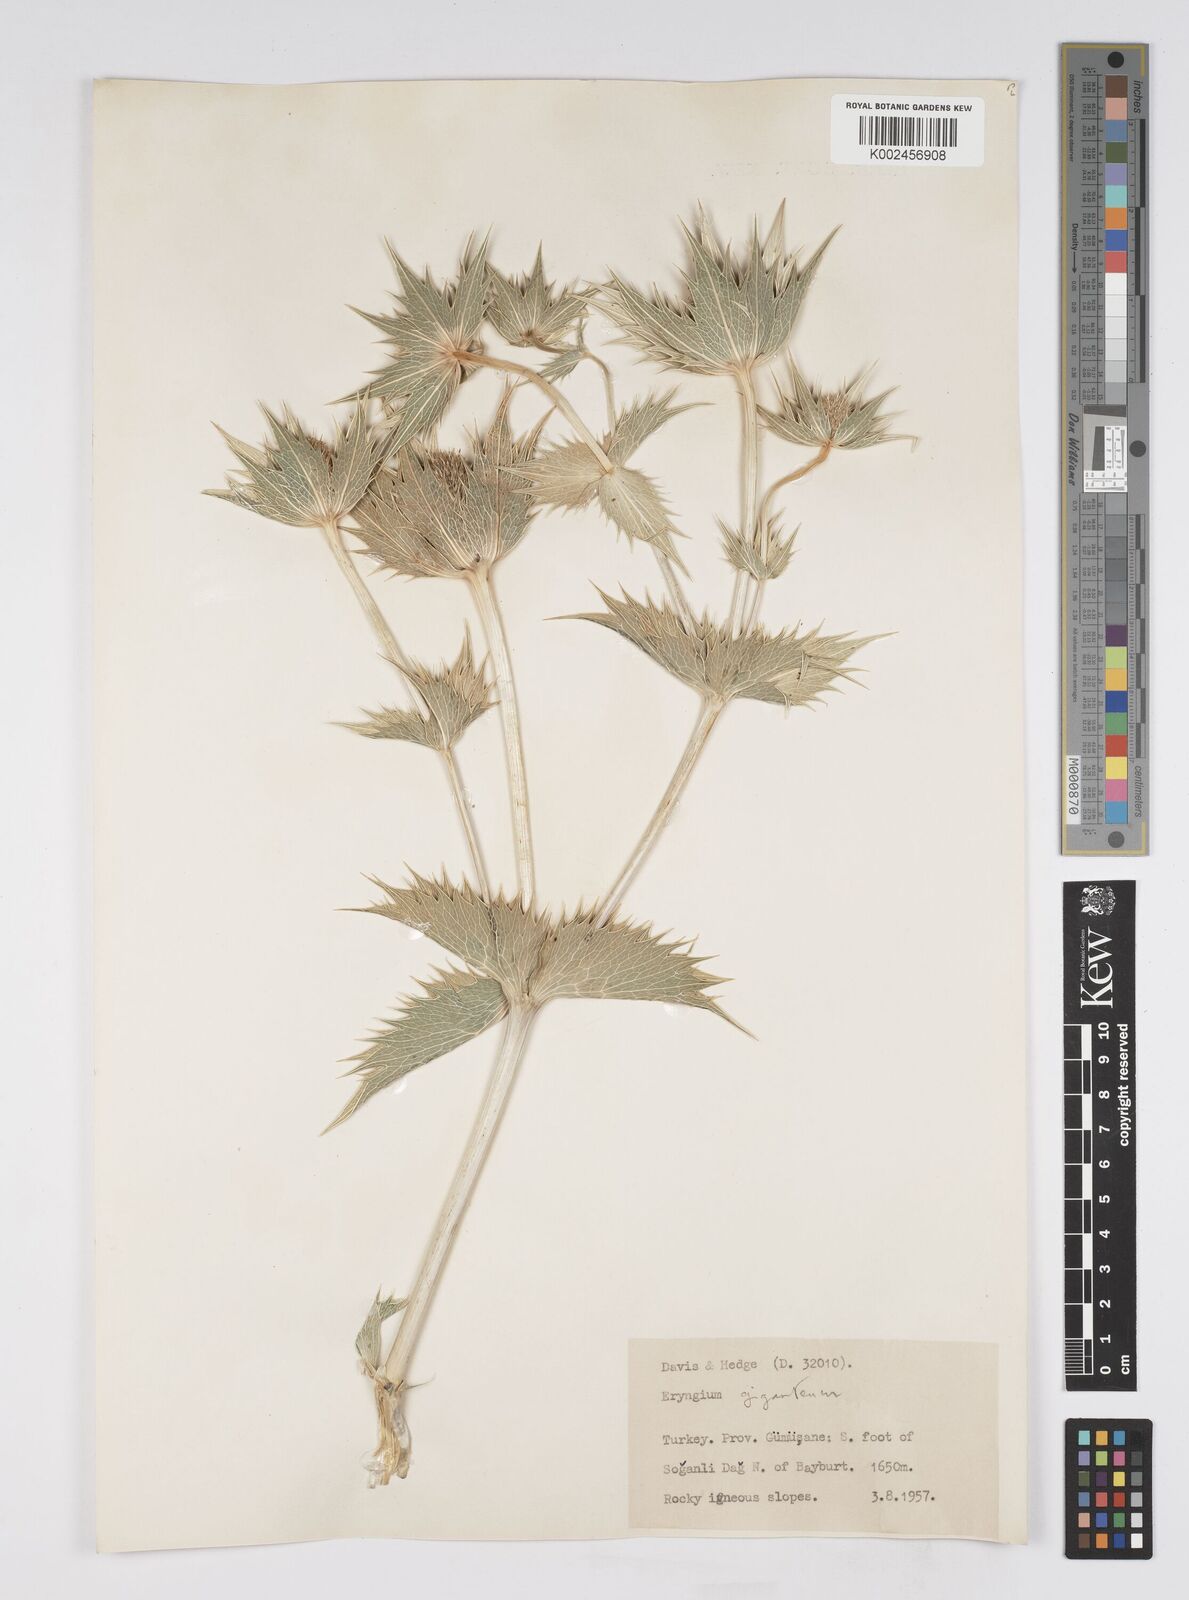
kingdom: Plantae
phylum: Tracheophyta
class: Magnoliopsida
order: Apiales
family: Apiaceae
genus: Eryngium
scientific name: Eryngium giganteum
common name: Tall eryngo
